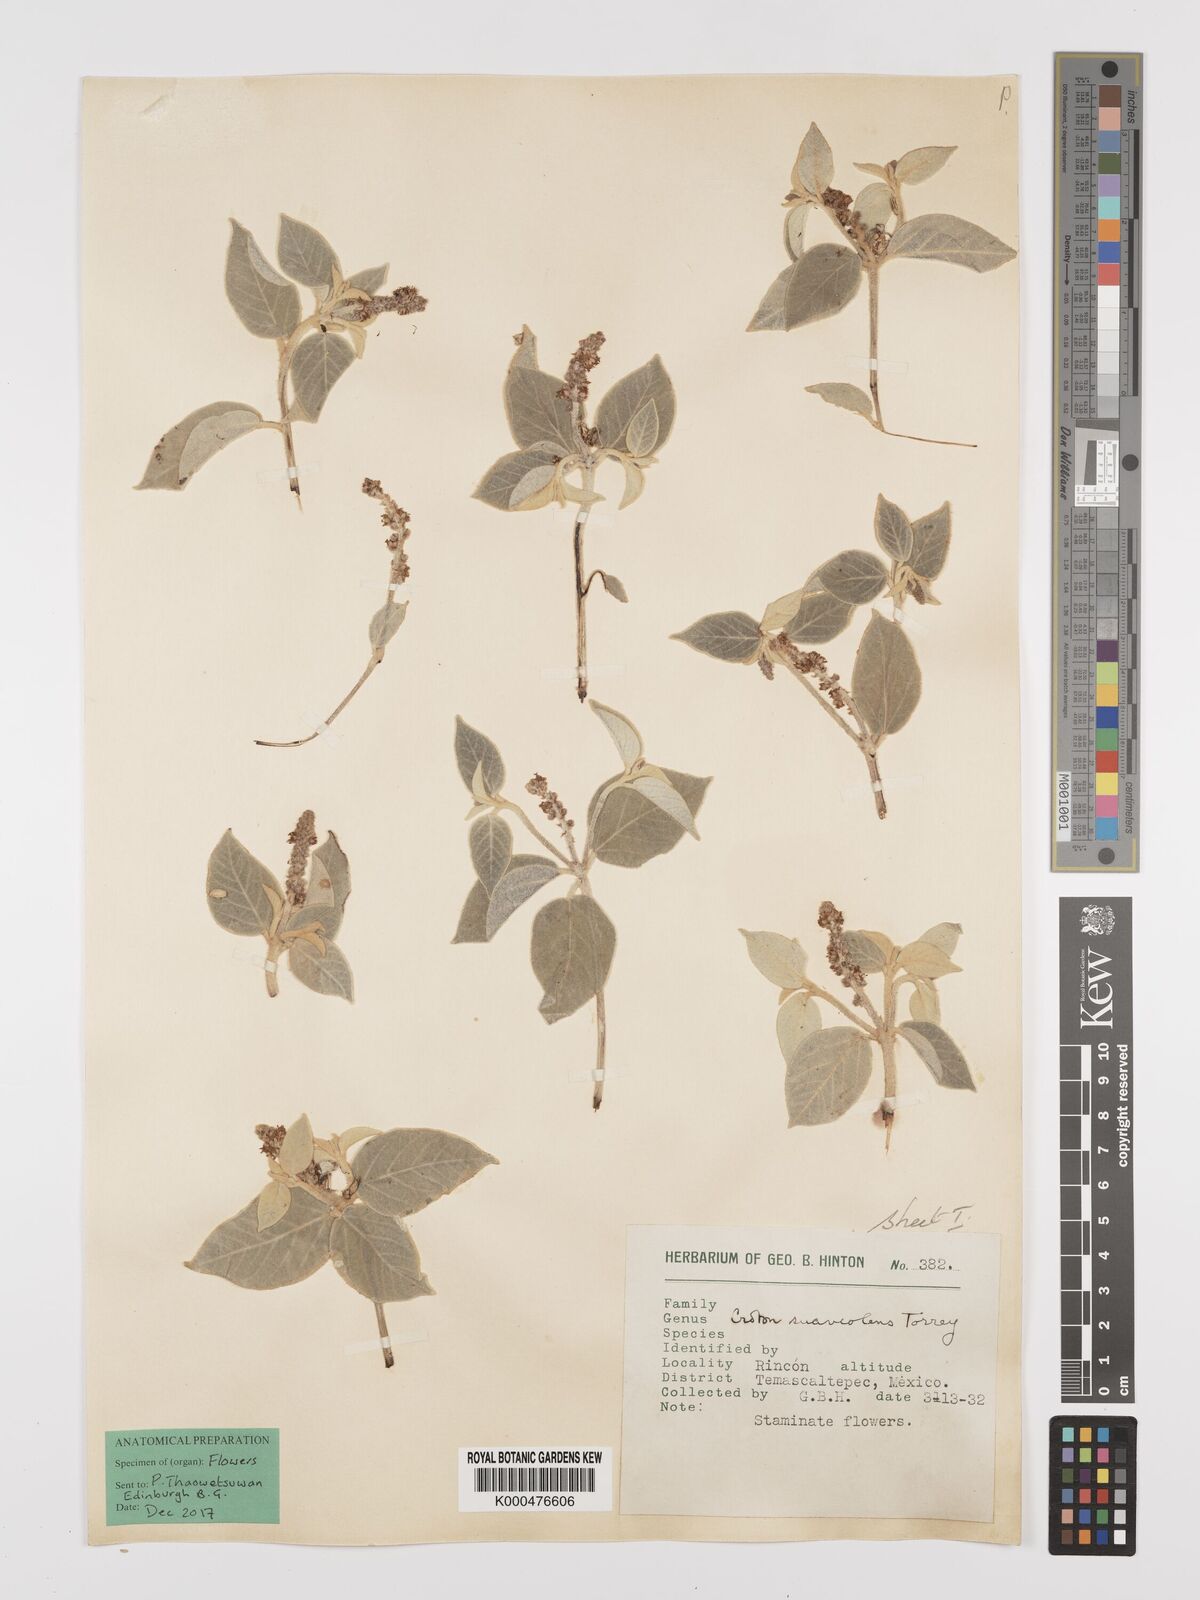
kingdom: Plantae
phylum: Tracheophyta
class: Magnoliopsida
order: Malpighiales
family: Euphorbiaceae
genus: Croton
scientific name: Croton suaveolens
